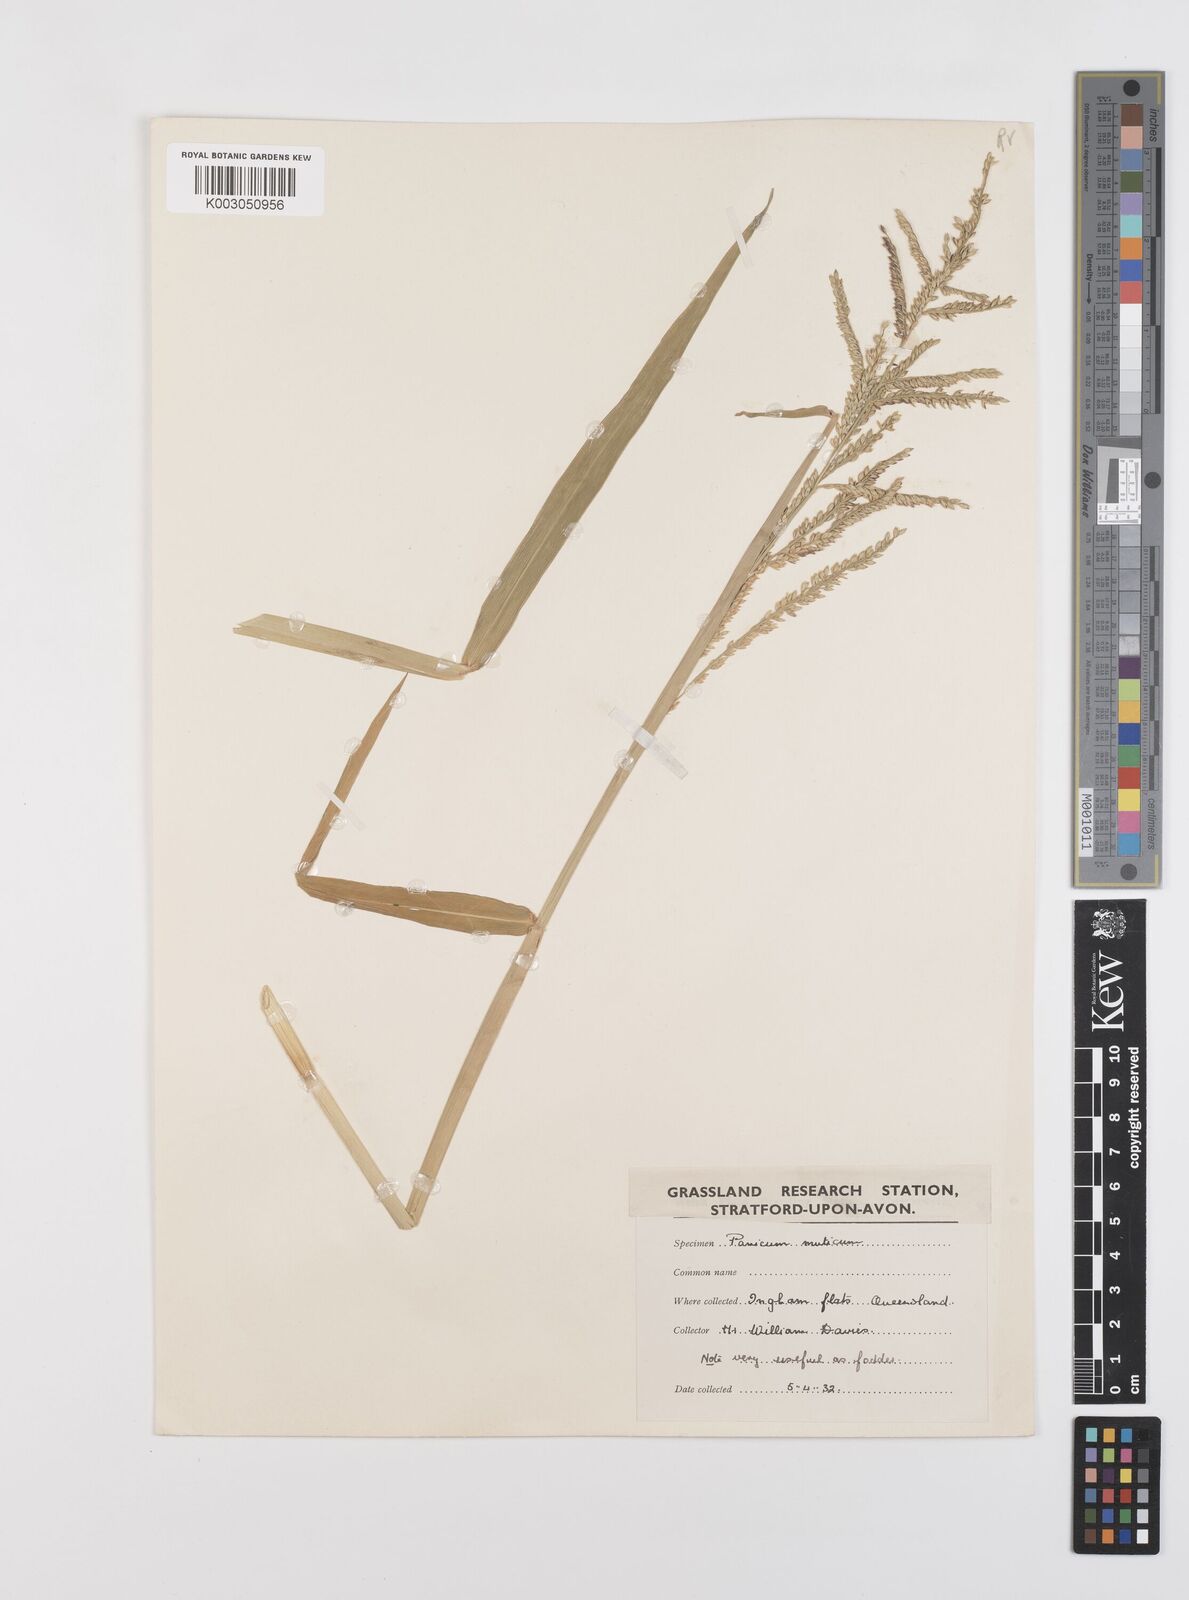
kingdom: Plantae
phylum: Tracheophyta
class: Liliopsida
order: Poales
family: Poaceae
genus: Urochloa
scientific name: Urochloa mutica
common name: Para grass
